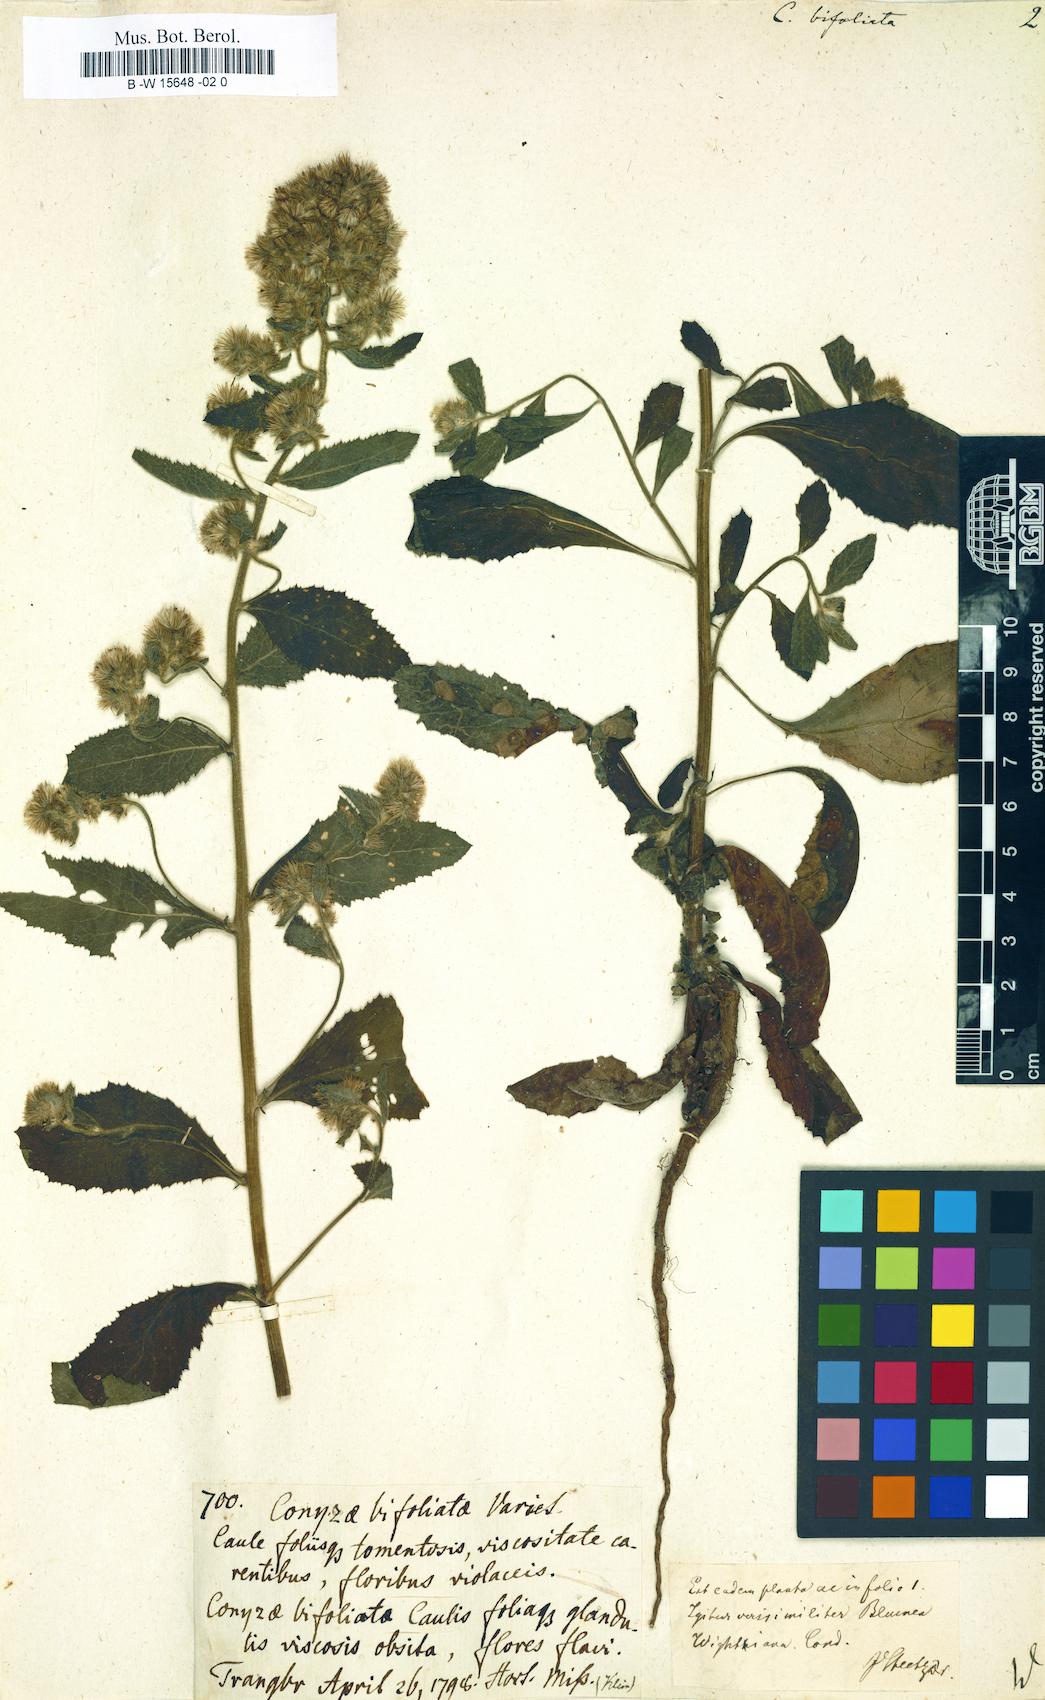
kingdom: Plantae
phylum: Tracheophyta
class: Magnoliopsida
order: Asterales
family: Asteraceae
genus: Sericocarpus
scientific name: Sericocarpus tortifolius
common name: Dixie aster
